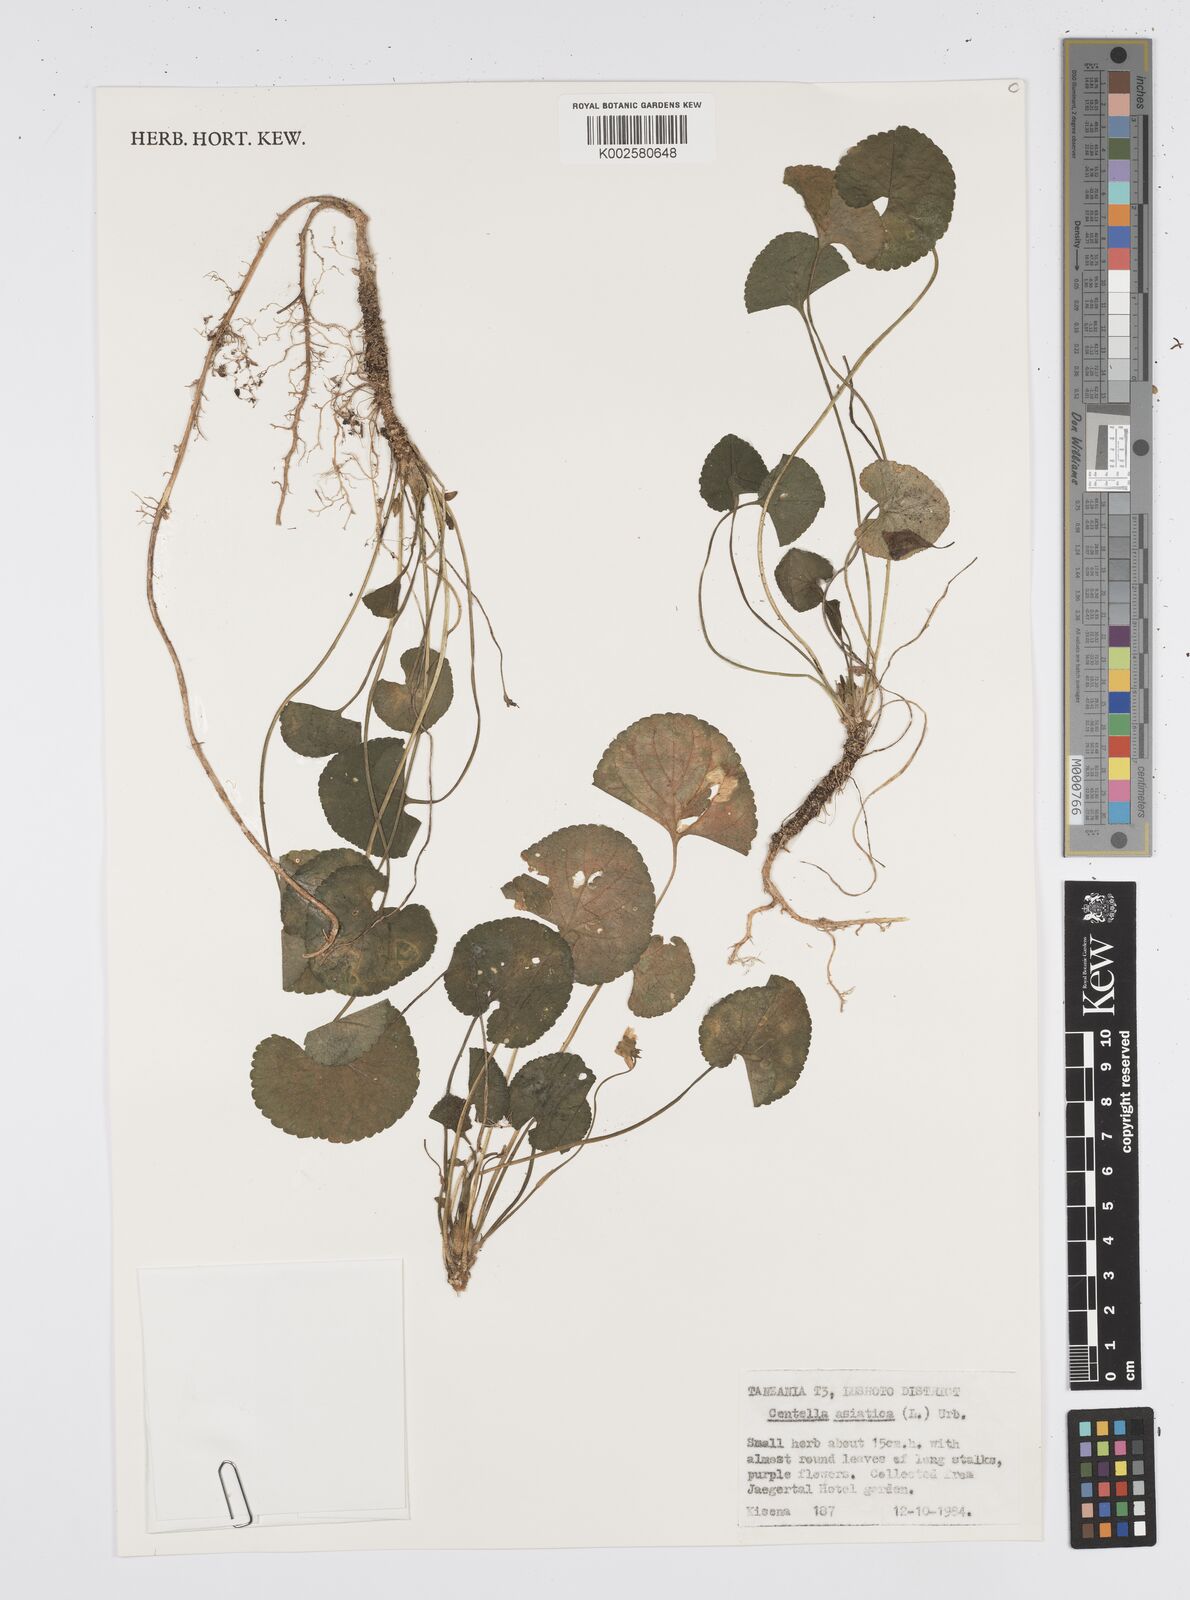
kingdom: Plantae
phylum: Tracheophyta
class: Magnoliopsida
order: Apiales
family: Apiaceae
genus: Centella
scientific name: Centella asiatica
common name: Spadeleaf
